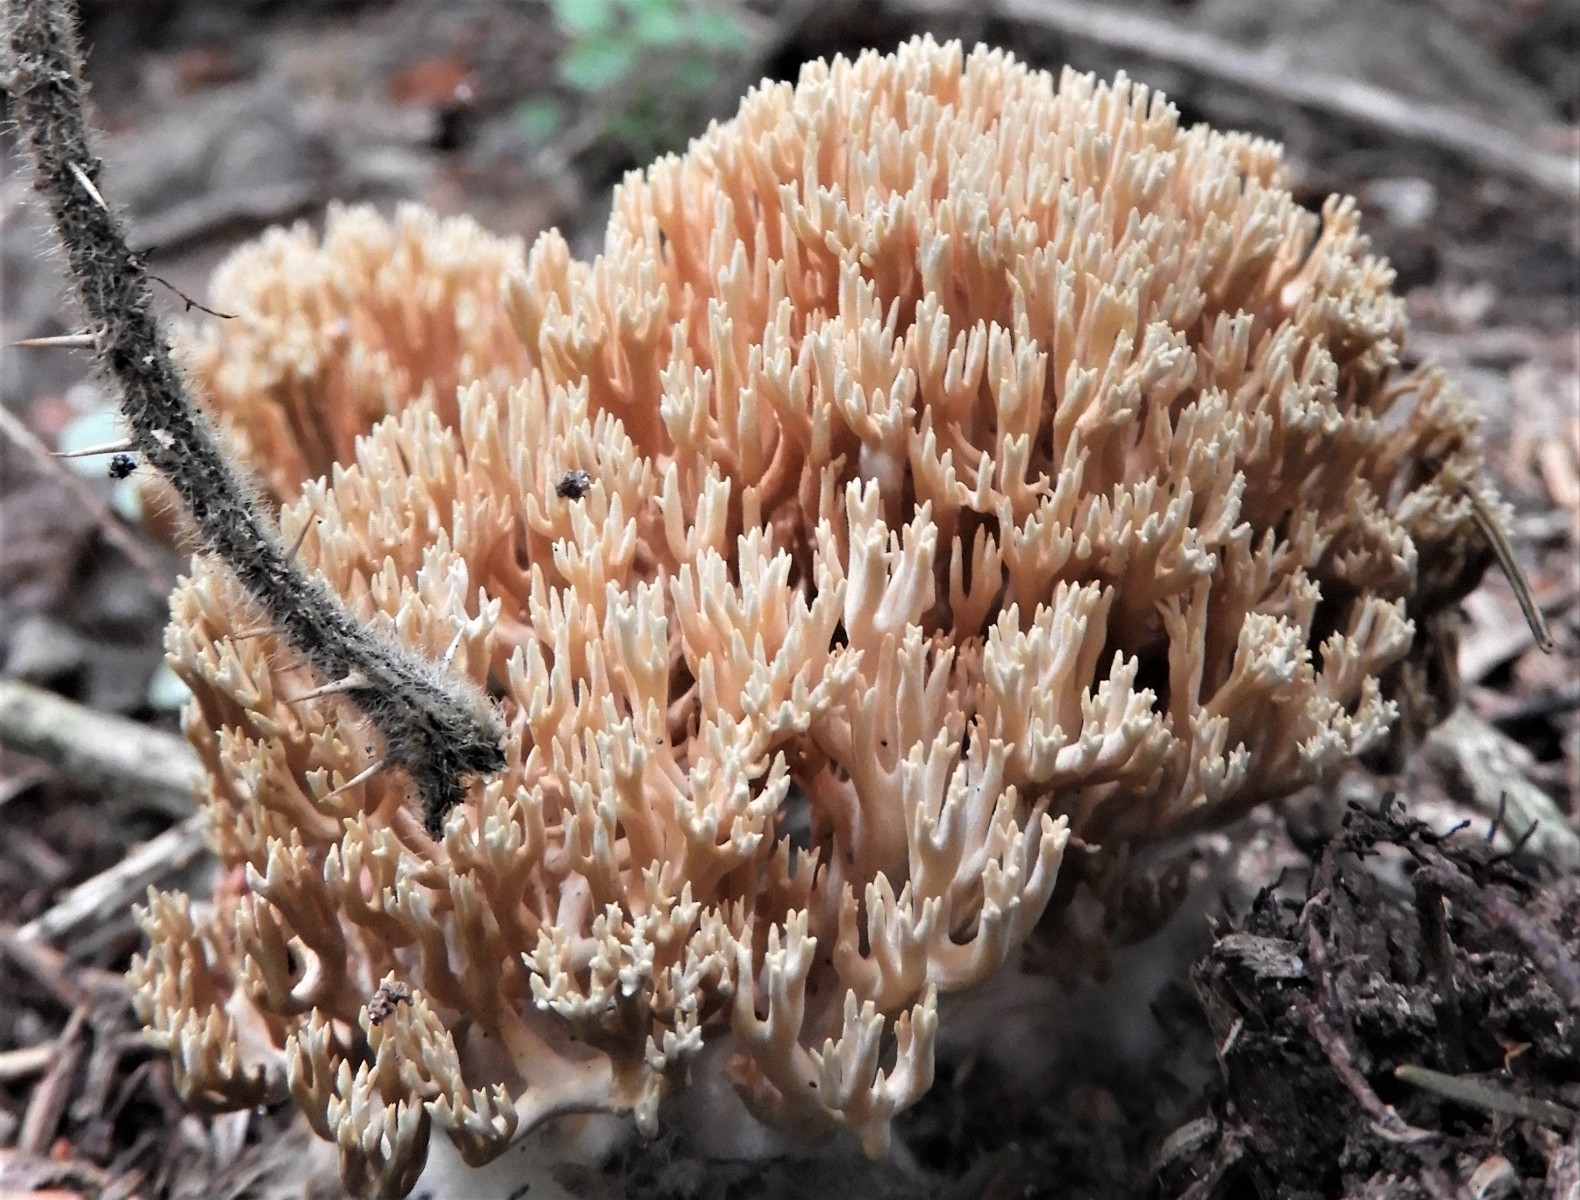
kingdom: Fungi
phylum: Basidiomycota
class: Agaricomycetes
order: Gomphales
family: Gomphaceae
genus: Ramaria
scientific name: Ramaria stricta
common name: rank koralsvamp
